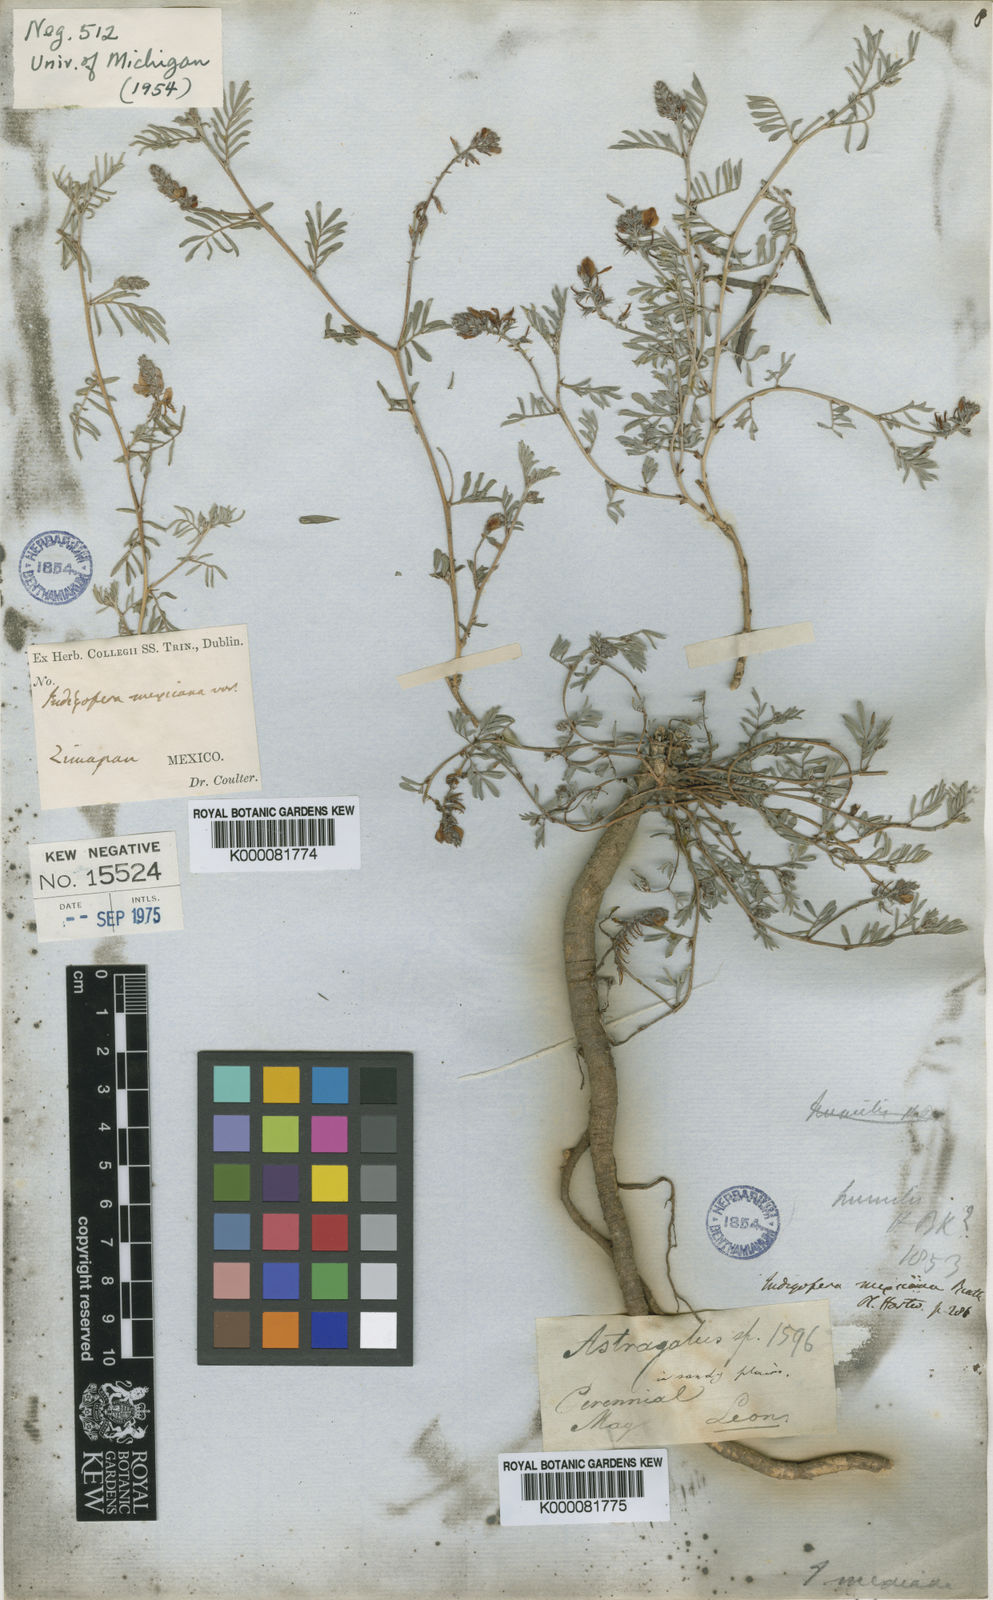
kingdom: Plantae
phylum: Tracheophyta
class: Magnoliopsida
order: Fabales
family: Fabaceae
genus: Indigofera
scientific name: Indigofera miniata
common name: Coast indigo
